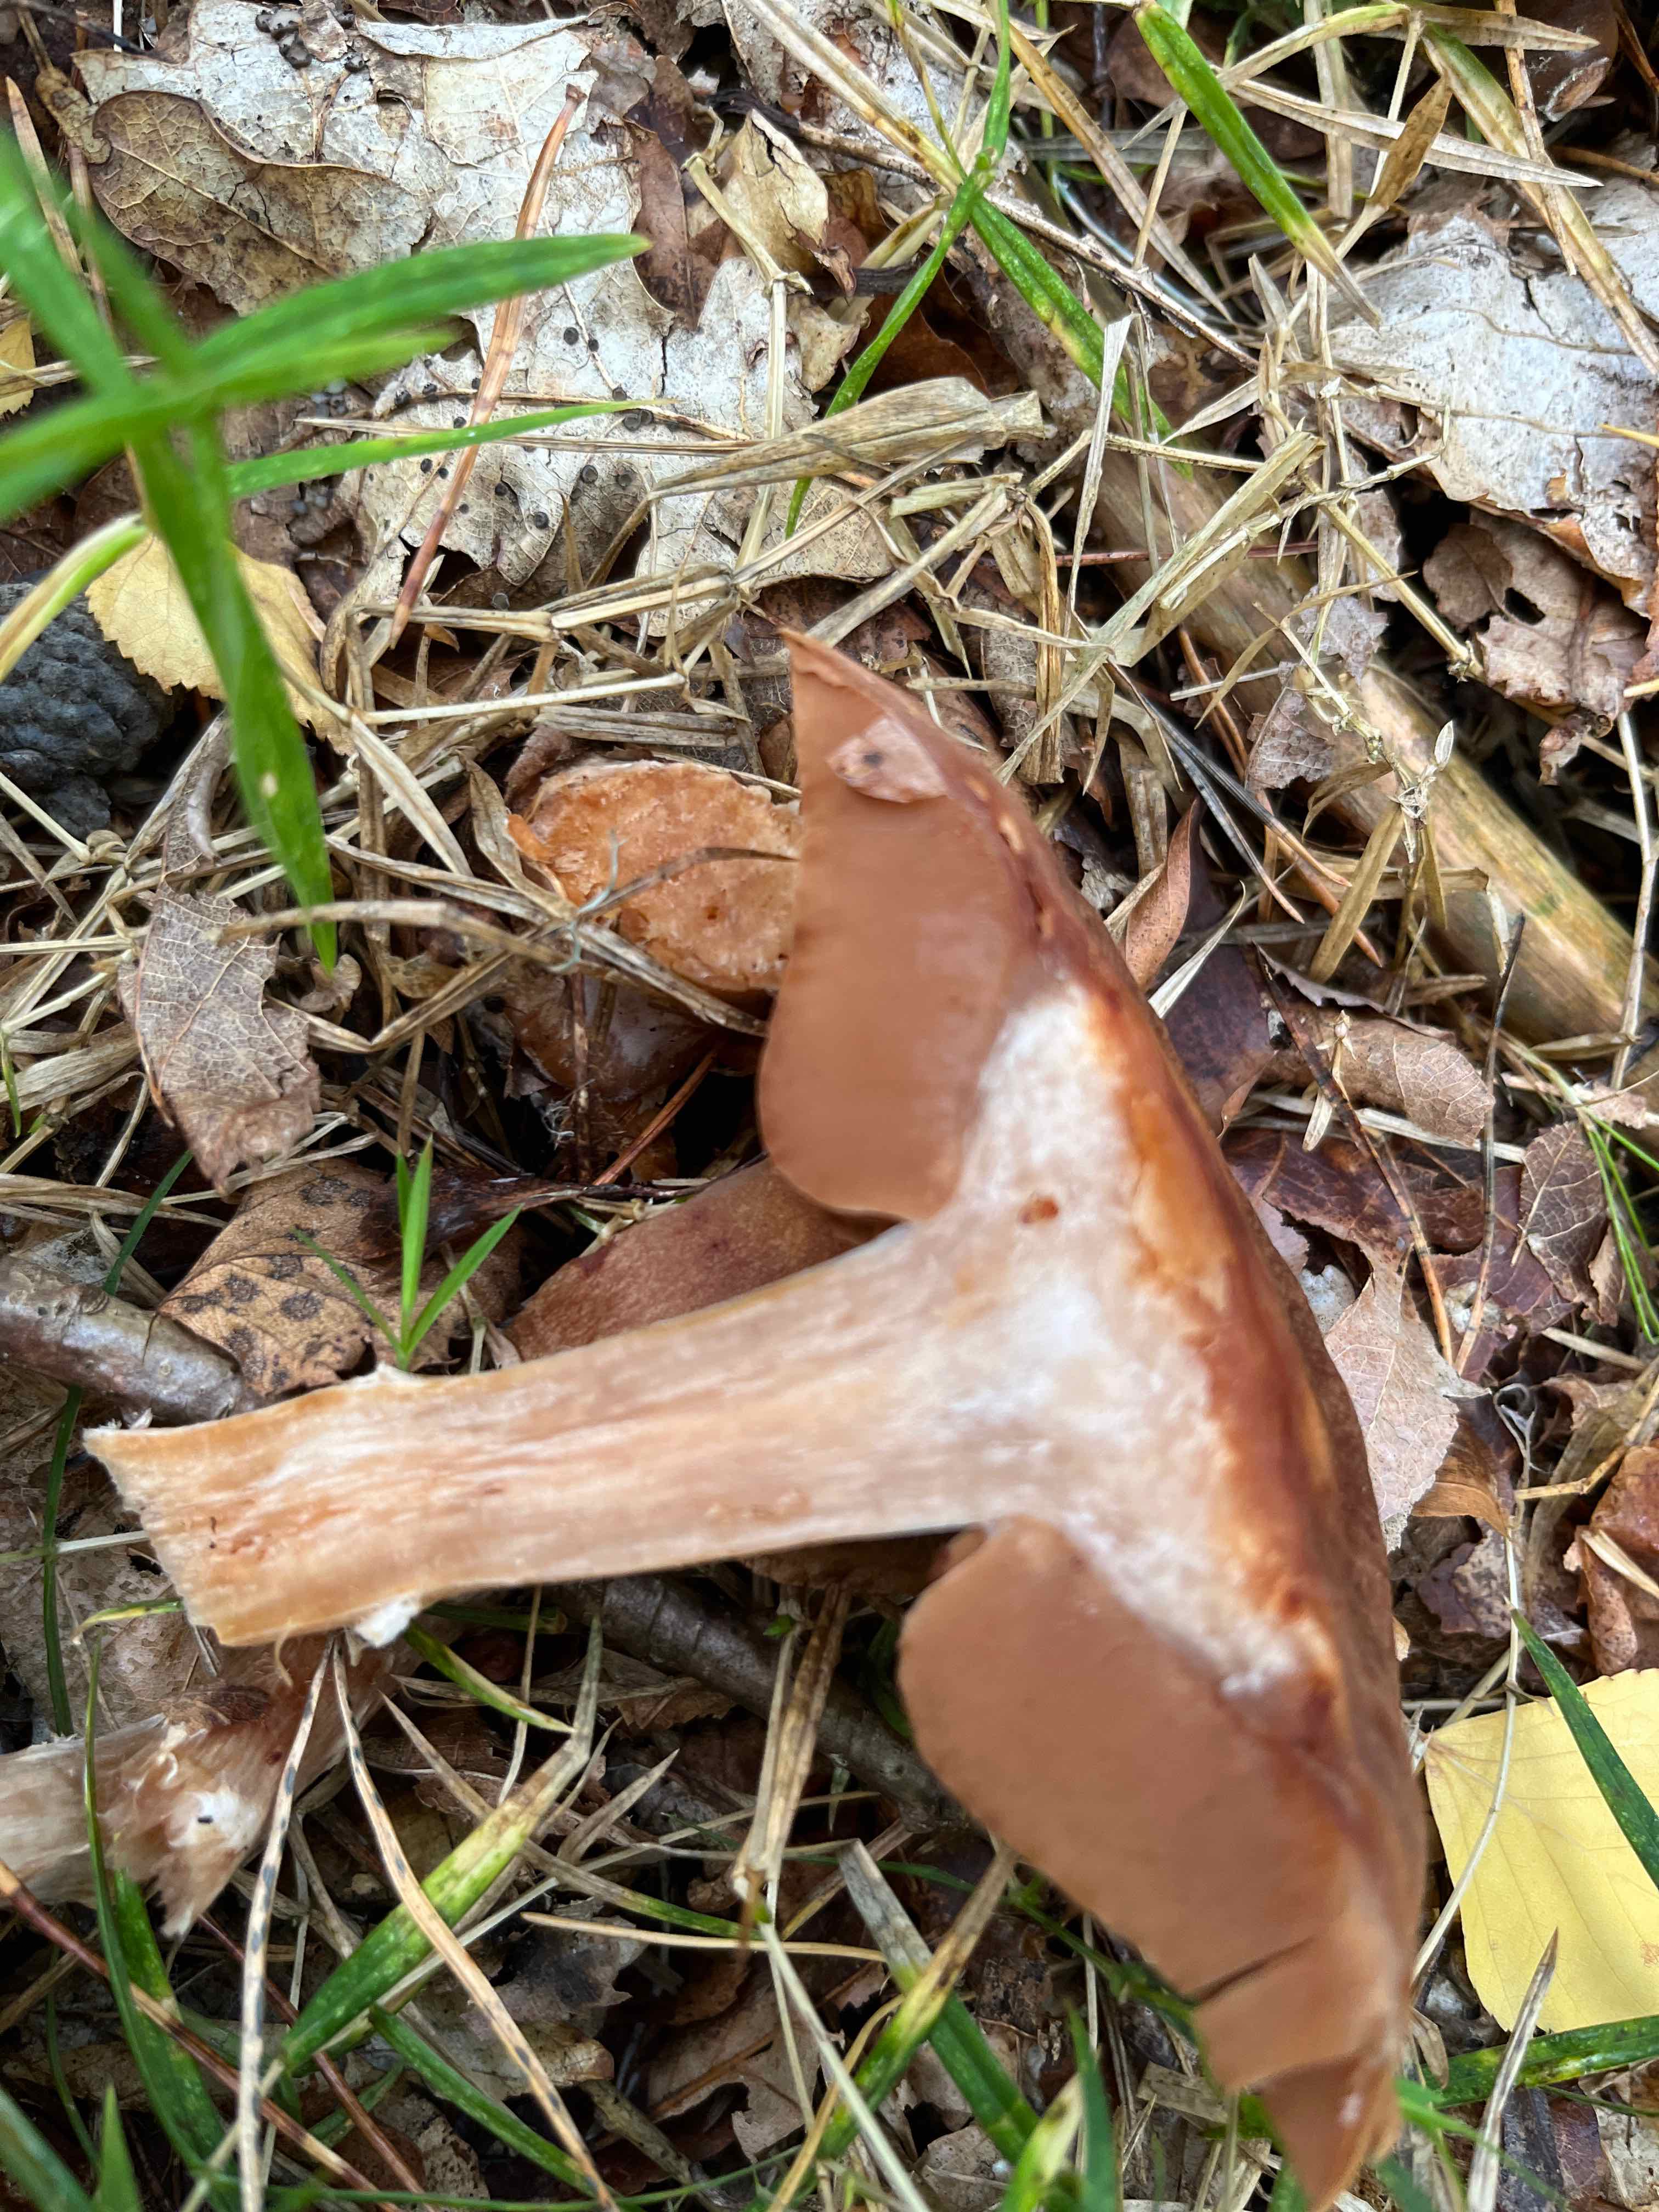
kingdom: Fungi
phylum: Basidiomycota
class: Agaricomycetes
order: Agaricales
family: Cortinariaceae
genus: Cortinarius
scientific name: Cortinarius
